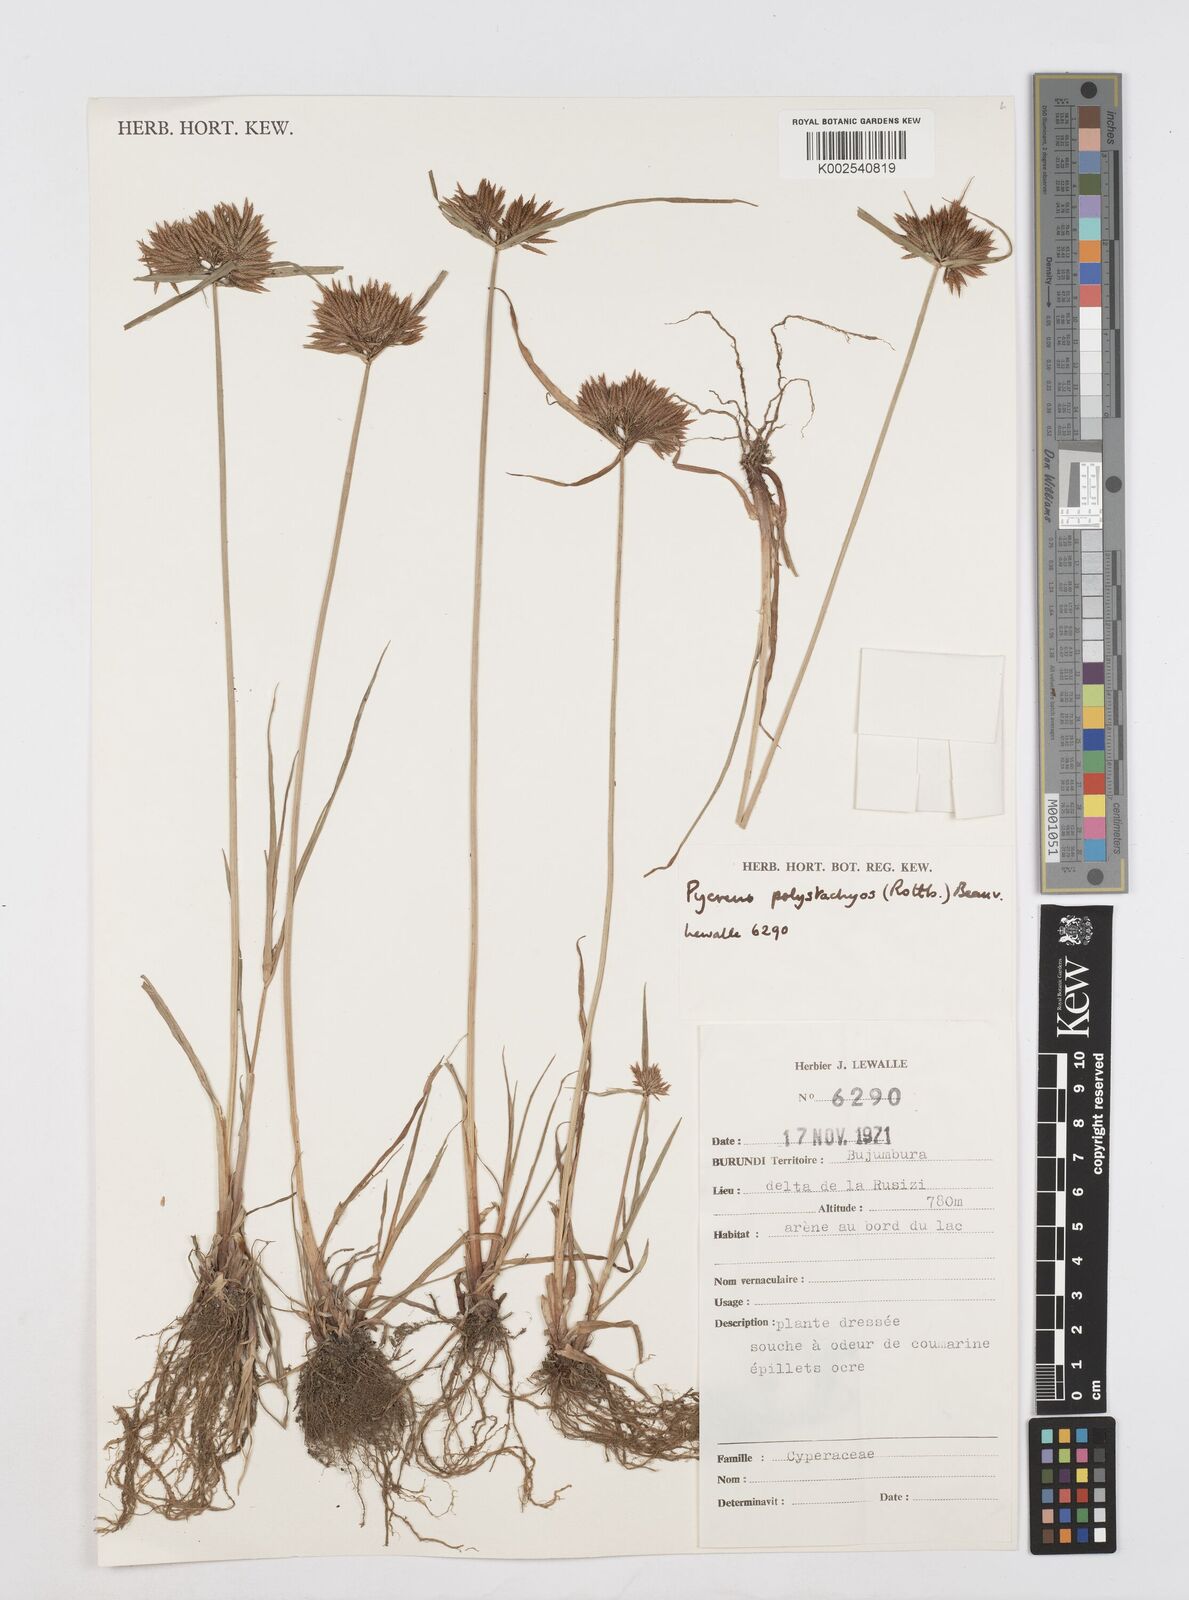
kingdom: Plantae
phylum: Tracheophyta
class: Liliopsida
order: Poales
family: Cyperaceae
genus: Cyperus
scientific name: Cyperus polystachyos
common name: Bunchy flat sedge
